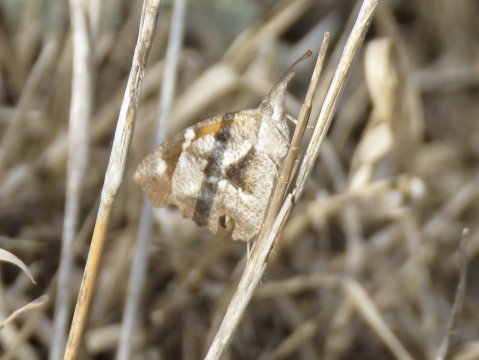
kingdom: Animalia
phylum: Arthropoda
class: Insecta
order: Lepidoptera
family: Nymphalidae
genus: Libytheana
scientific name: Libytheana carinenta
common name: American Snout
